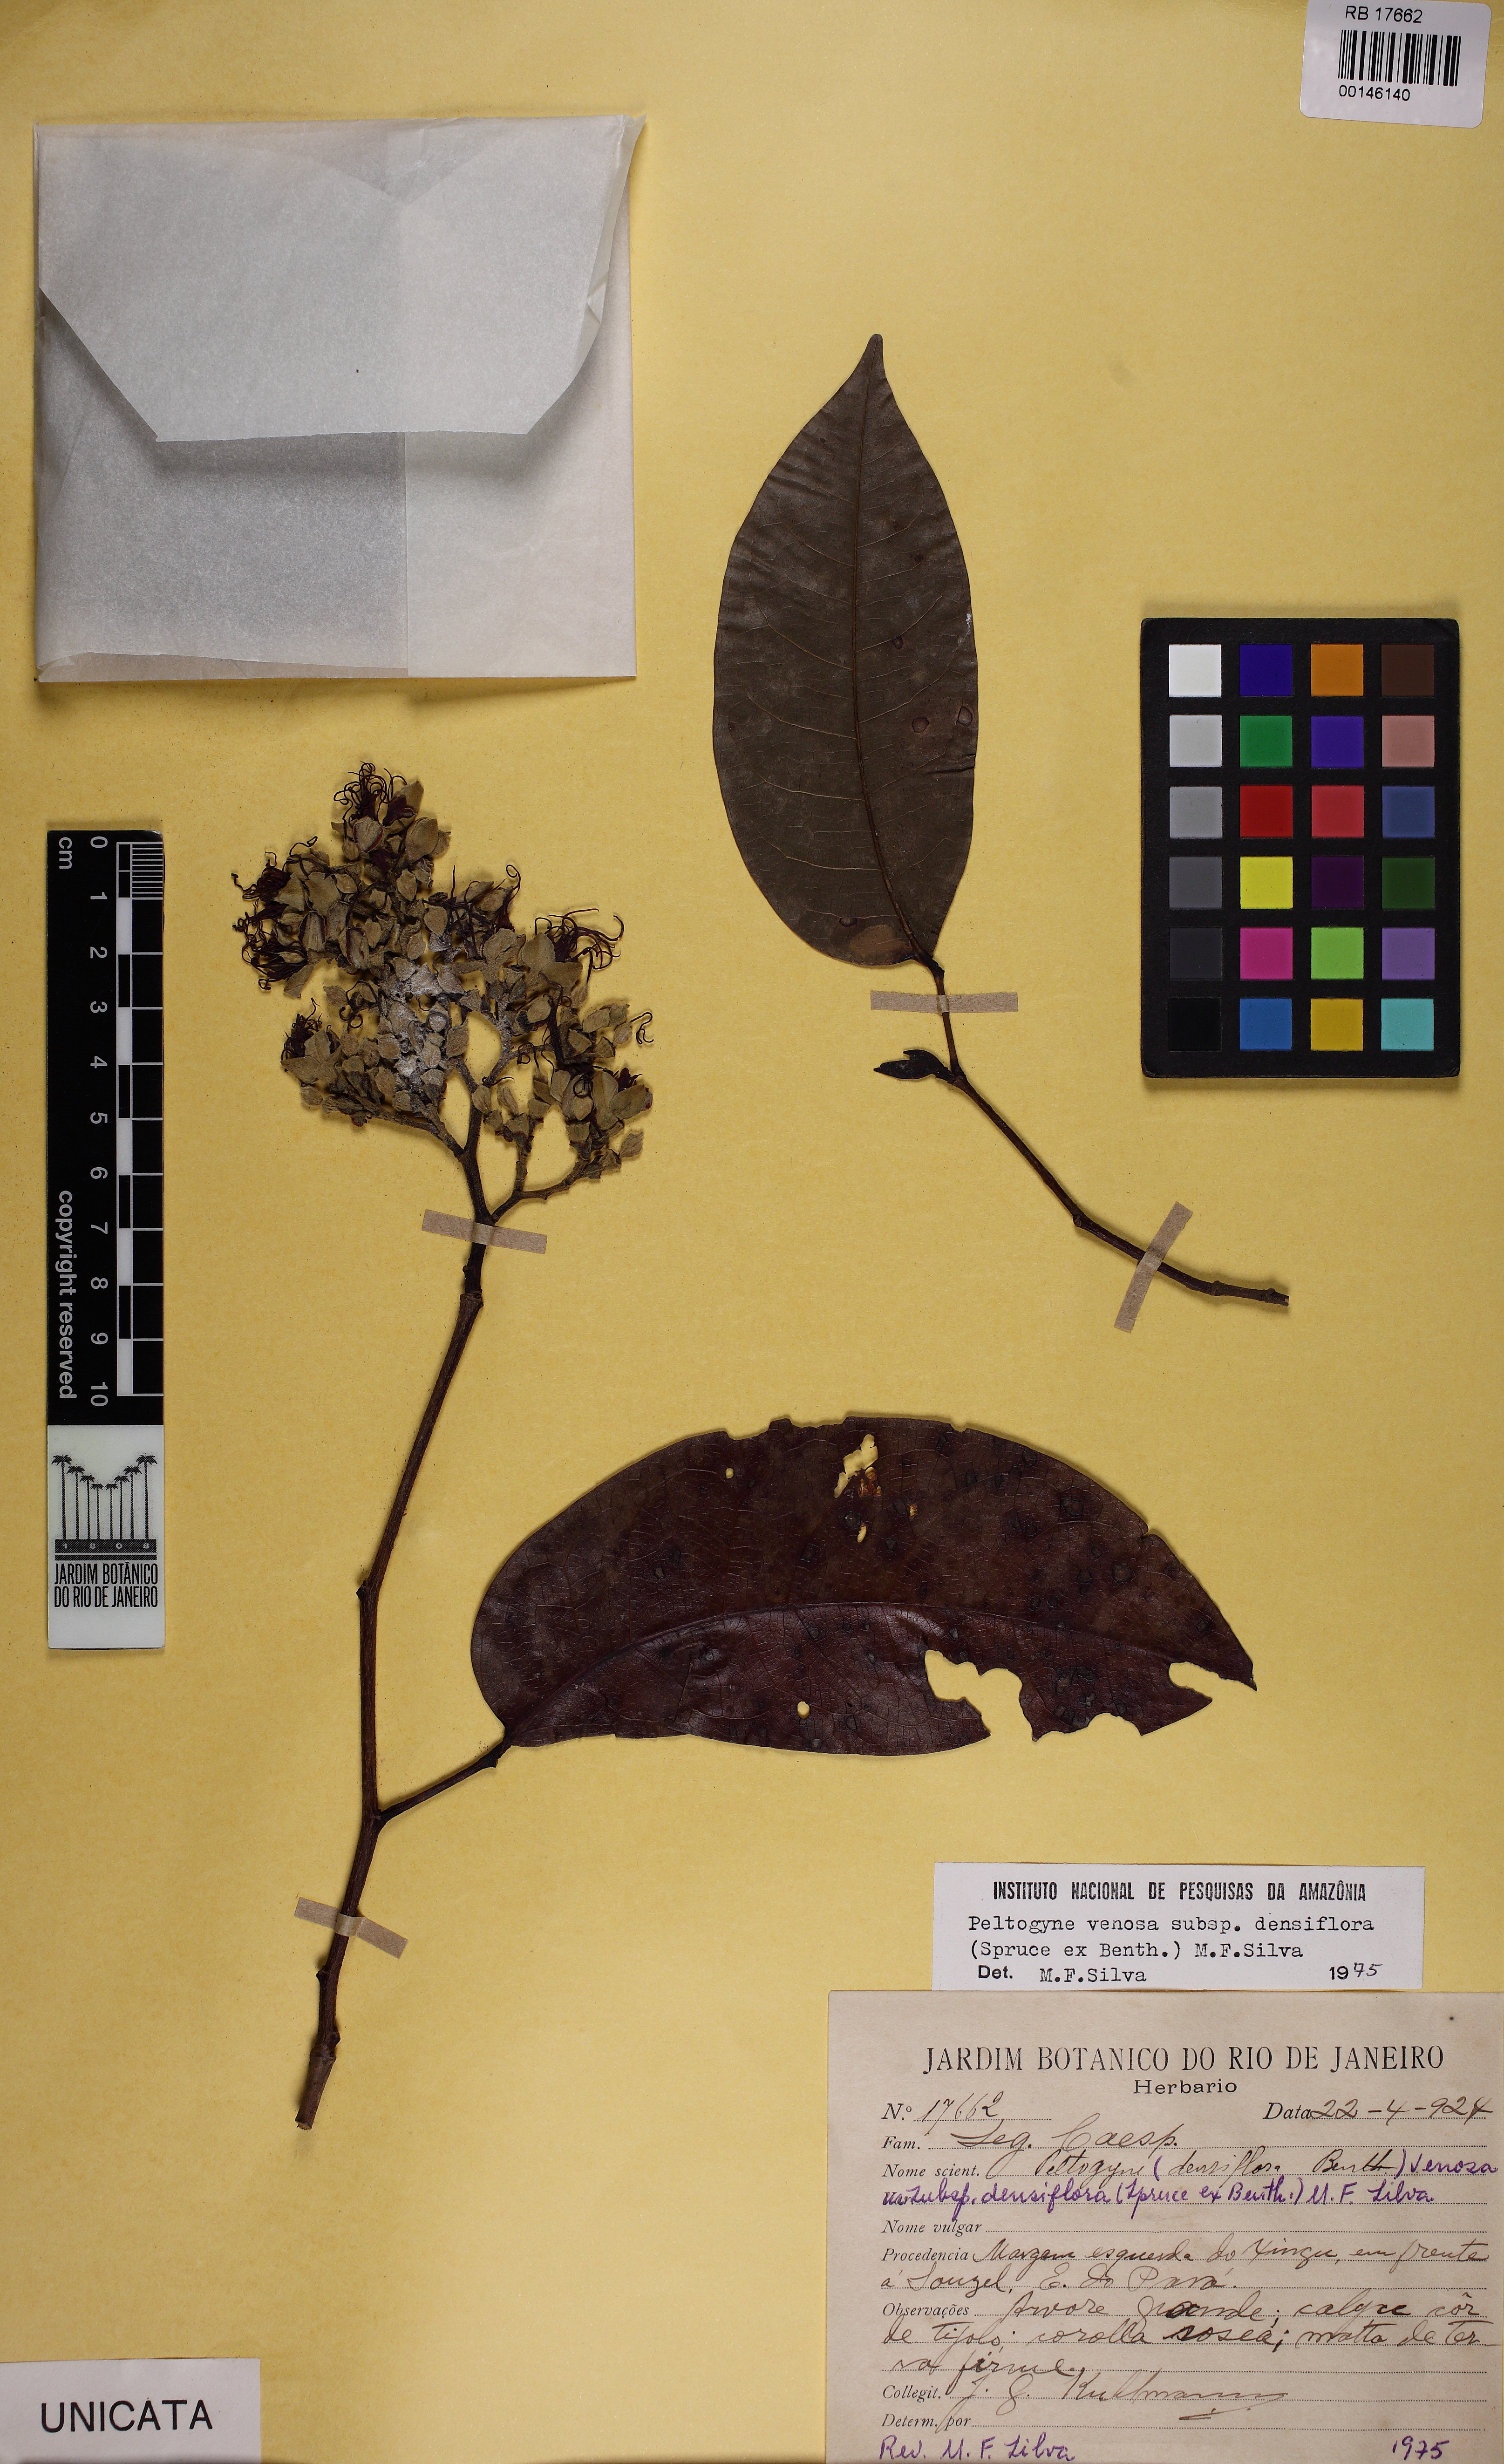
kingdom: Plantae
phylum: Tracheophyta
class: Magnoliopsida
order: Fabales
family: Fabaceae
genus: Peltogyne
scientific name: Peltogyne venosa
